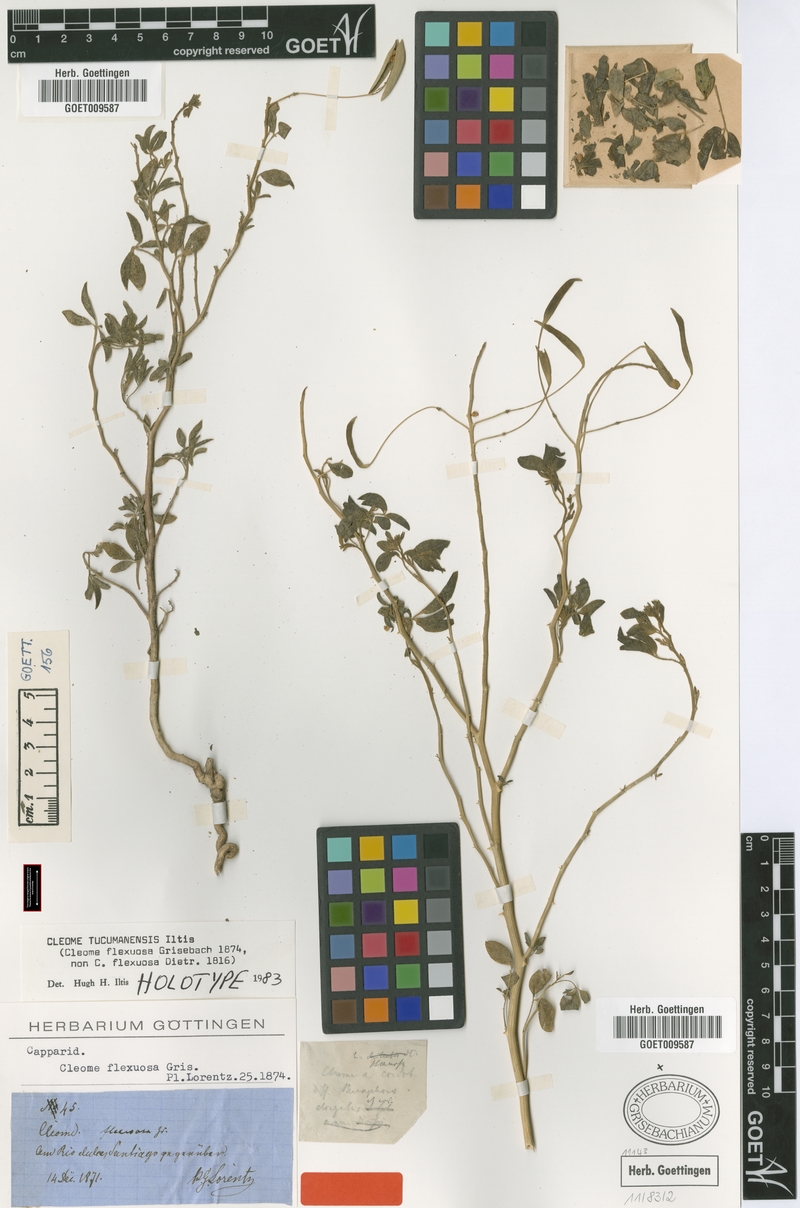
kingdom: Plantae
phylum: Tracheophyta
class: Magnoliopsida
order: Brassicales
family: Cleomaceae
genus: Tarenaya
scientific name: Tarenaya tucumanensis
